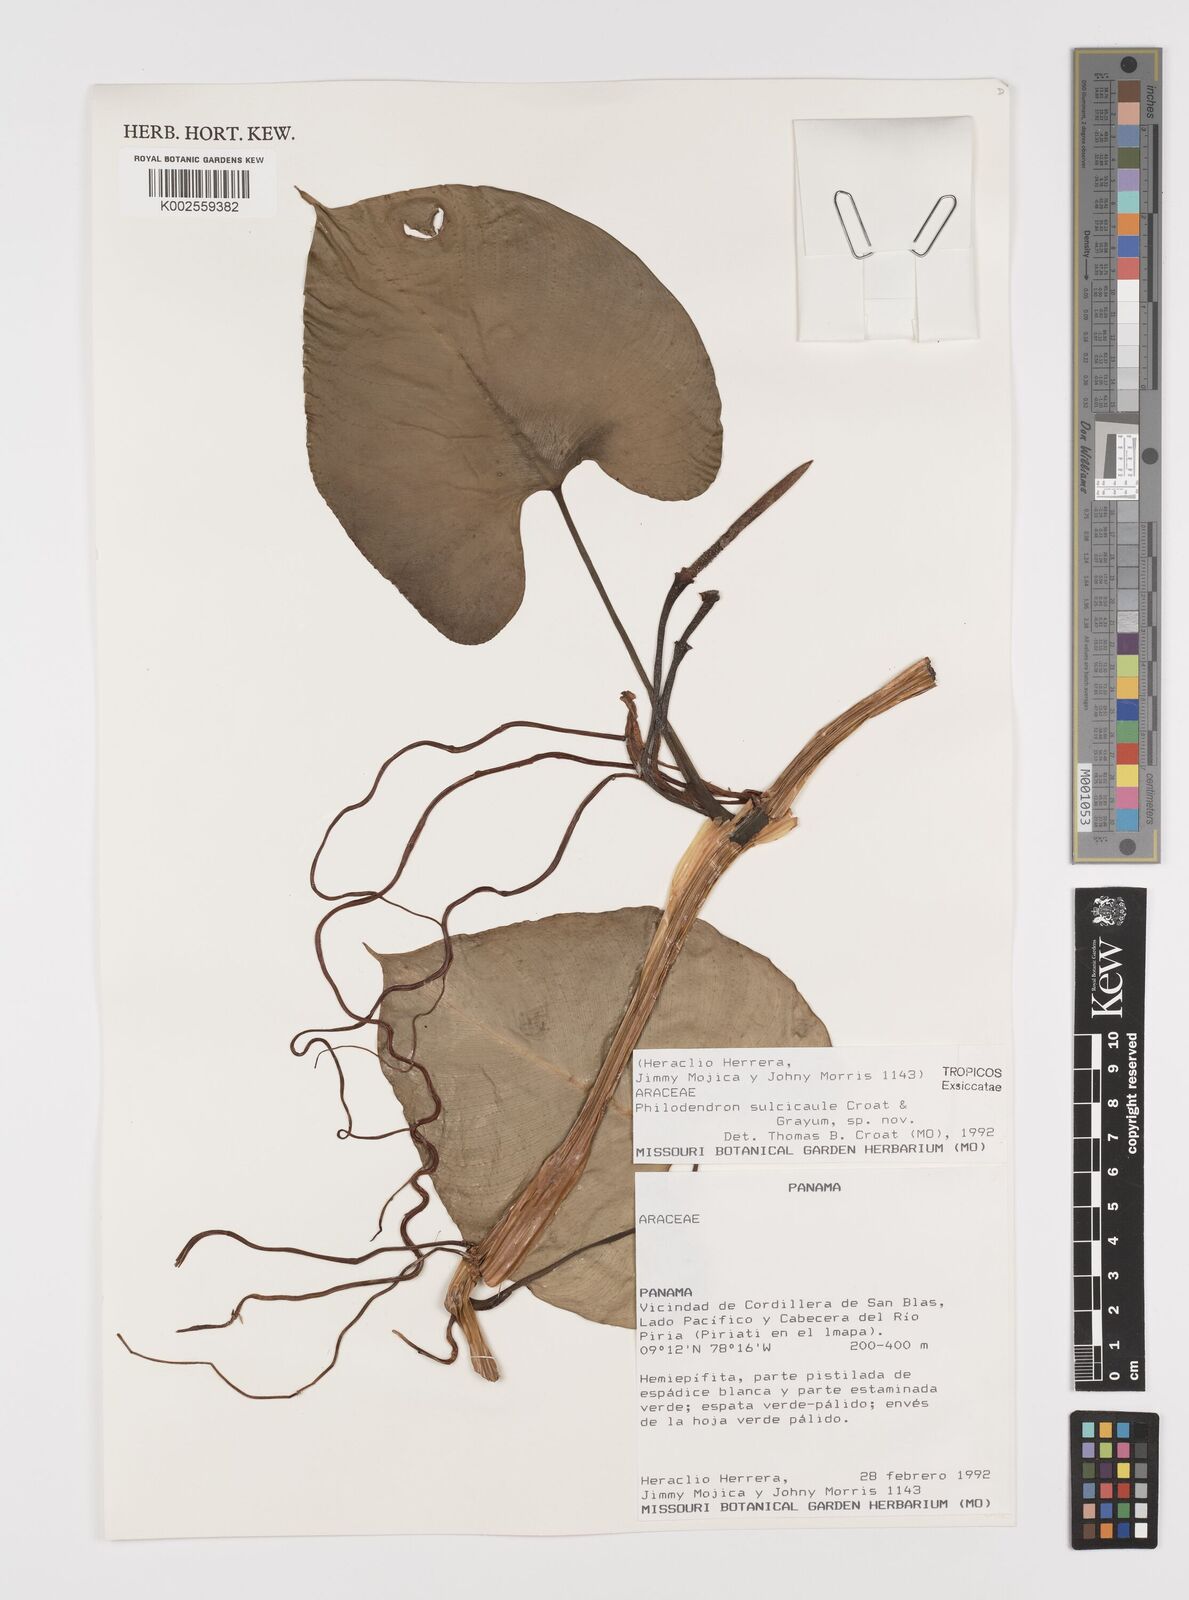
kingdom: Plantae
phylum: Tracheophyta
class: Liliopsida
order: Alismatales
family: Araceae
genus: Philodendron
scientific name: Philodendron sulcicaule
